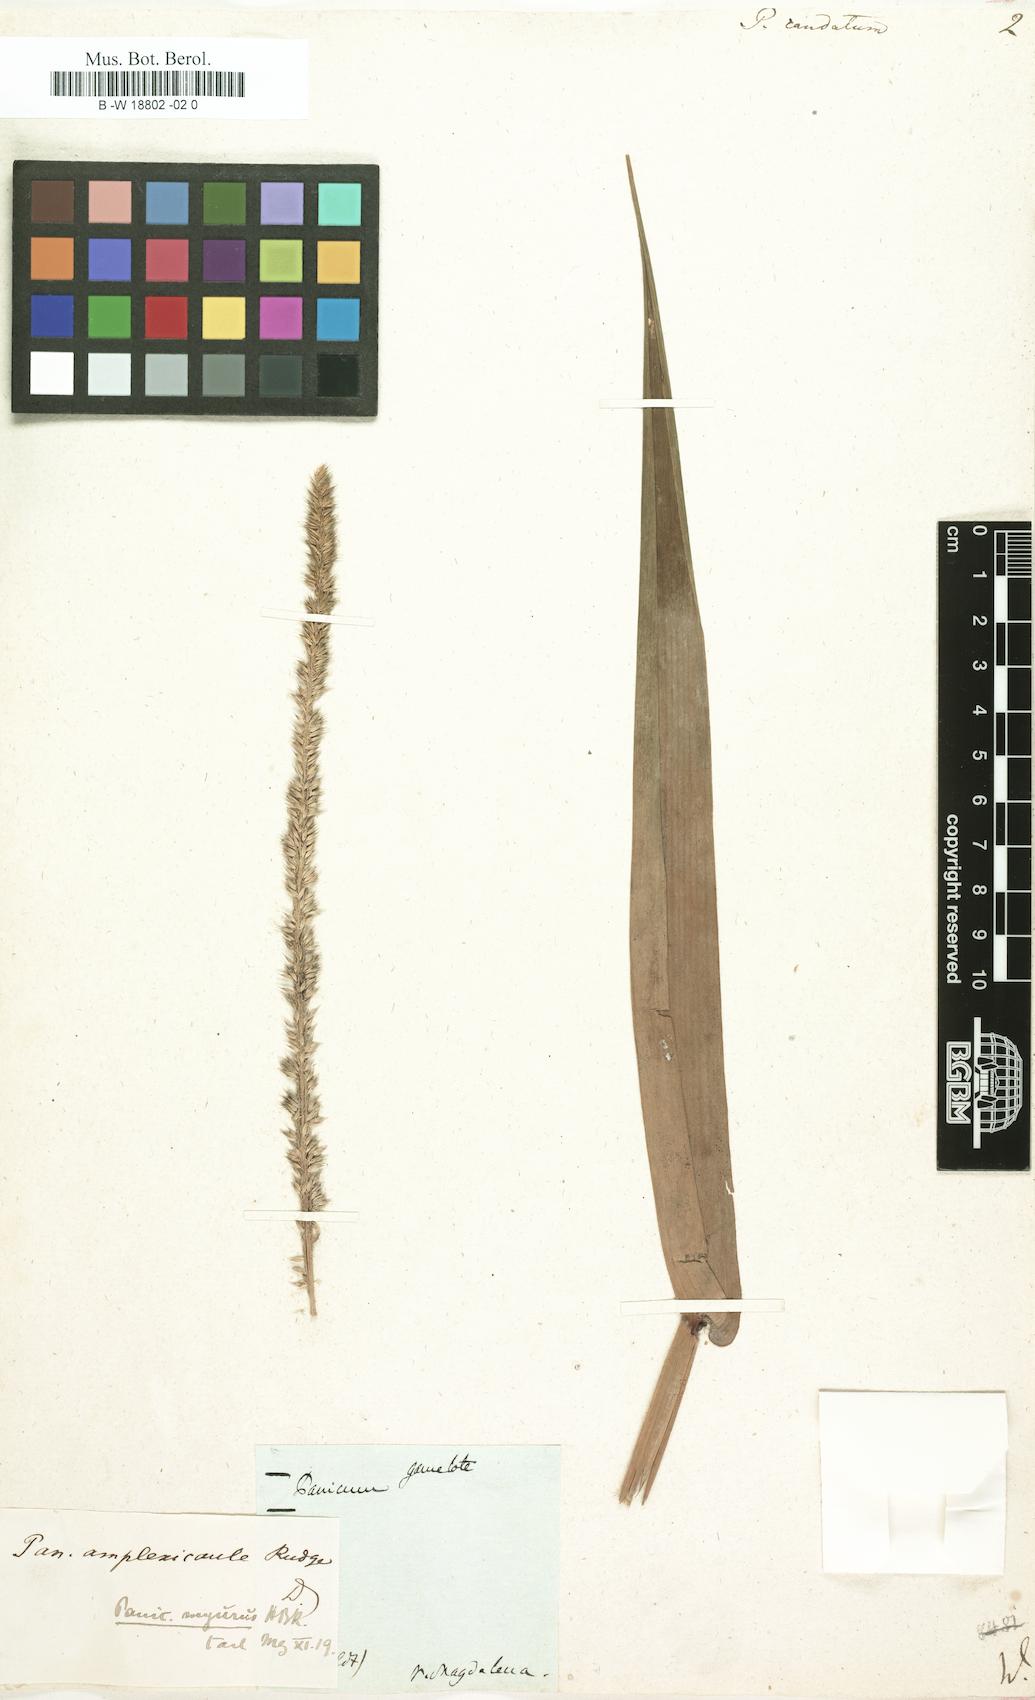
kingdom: Plantae
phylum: Tracheophyta
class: Liliopsida
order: Poales
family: Poaceae
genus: Hymenachne
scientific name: Hymenachne amplexicaulis
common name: Olive hymenachne
